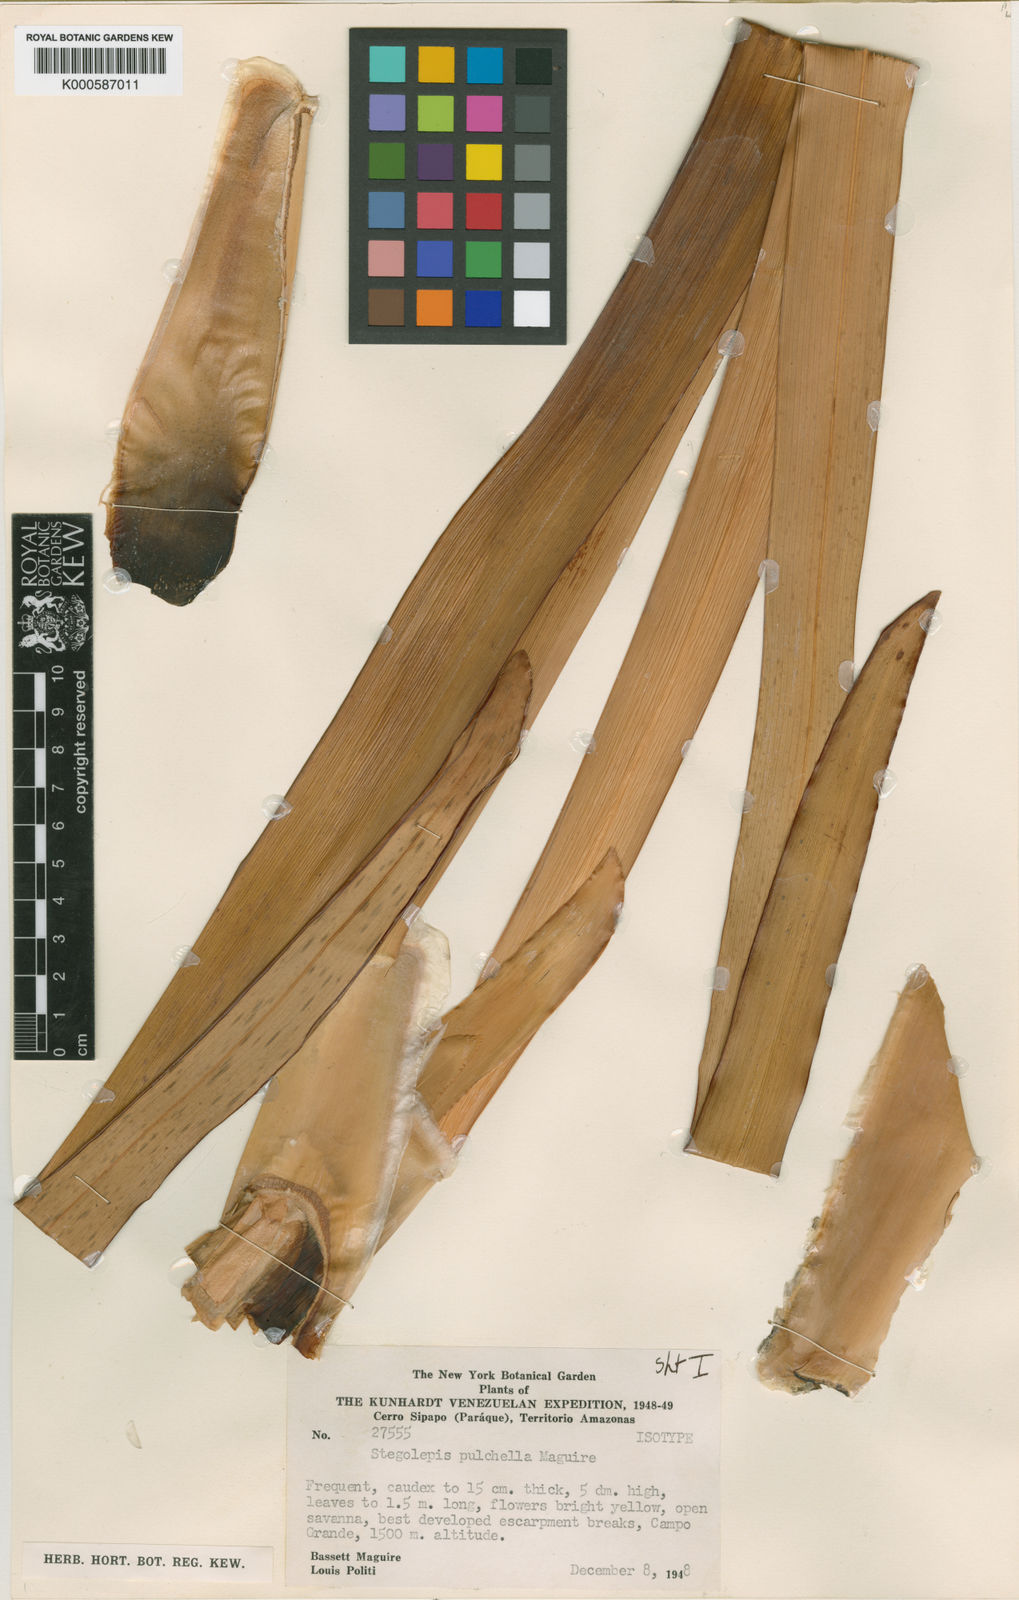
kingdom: Plantae
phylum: Tracheophyta
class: Liliopsida
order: Poales
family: Rapateaceae
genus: Stegolepis
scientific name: Stegolepis pulchella
